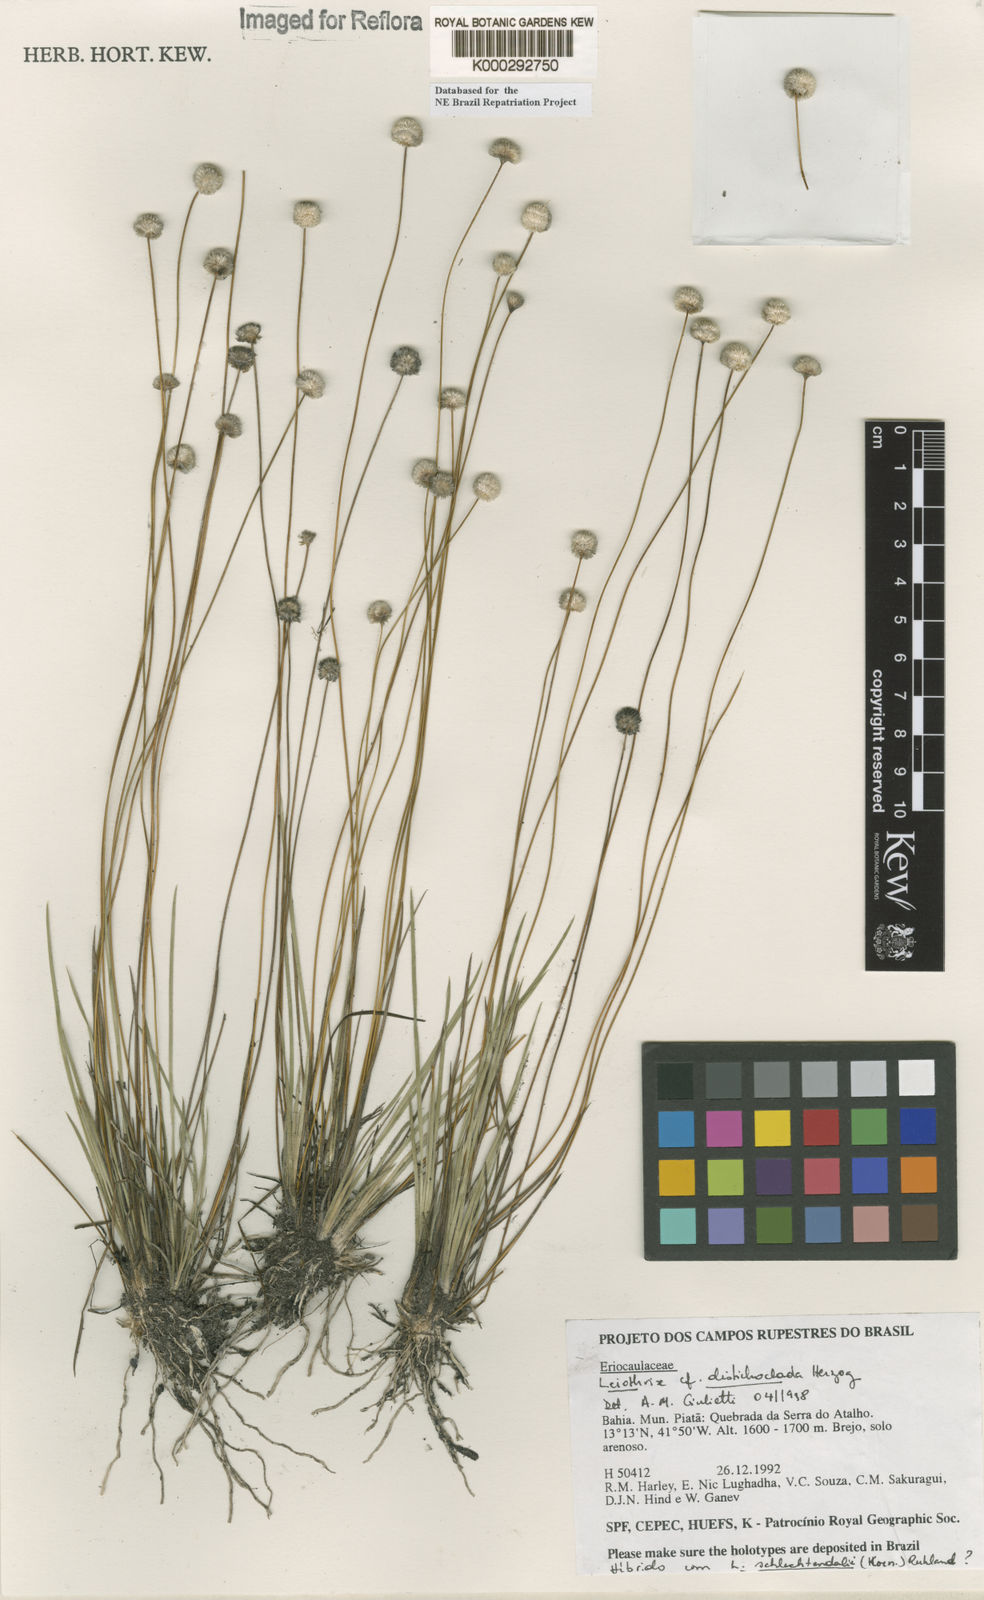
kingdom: Plantae
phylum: Tracheophyta
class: Liliopsida
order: Poales
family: Eriocaulaceae
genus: Leiothrix
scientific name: Leiothrix distichoclada
